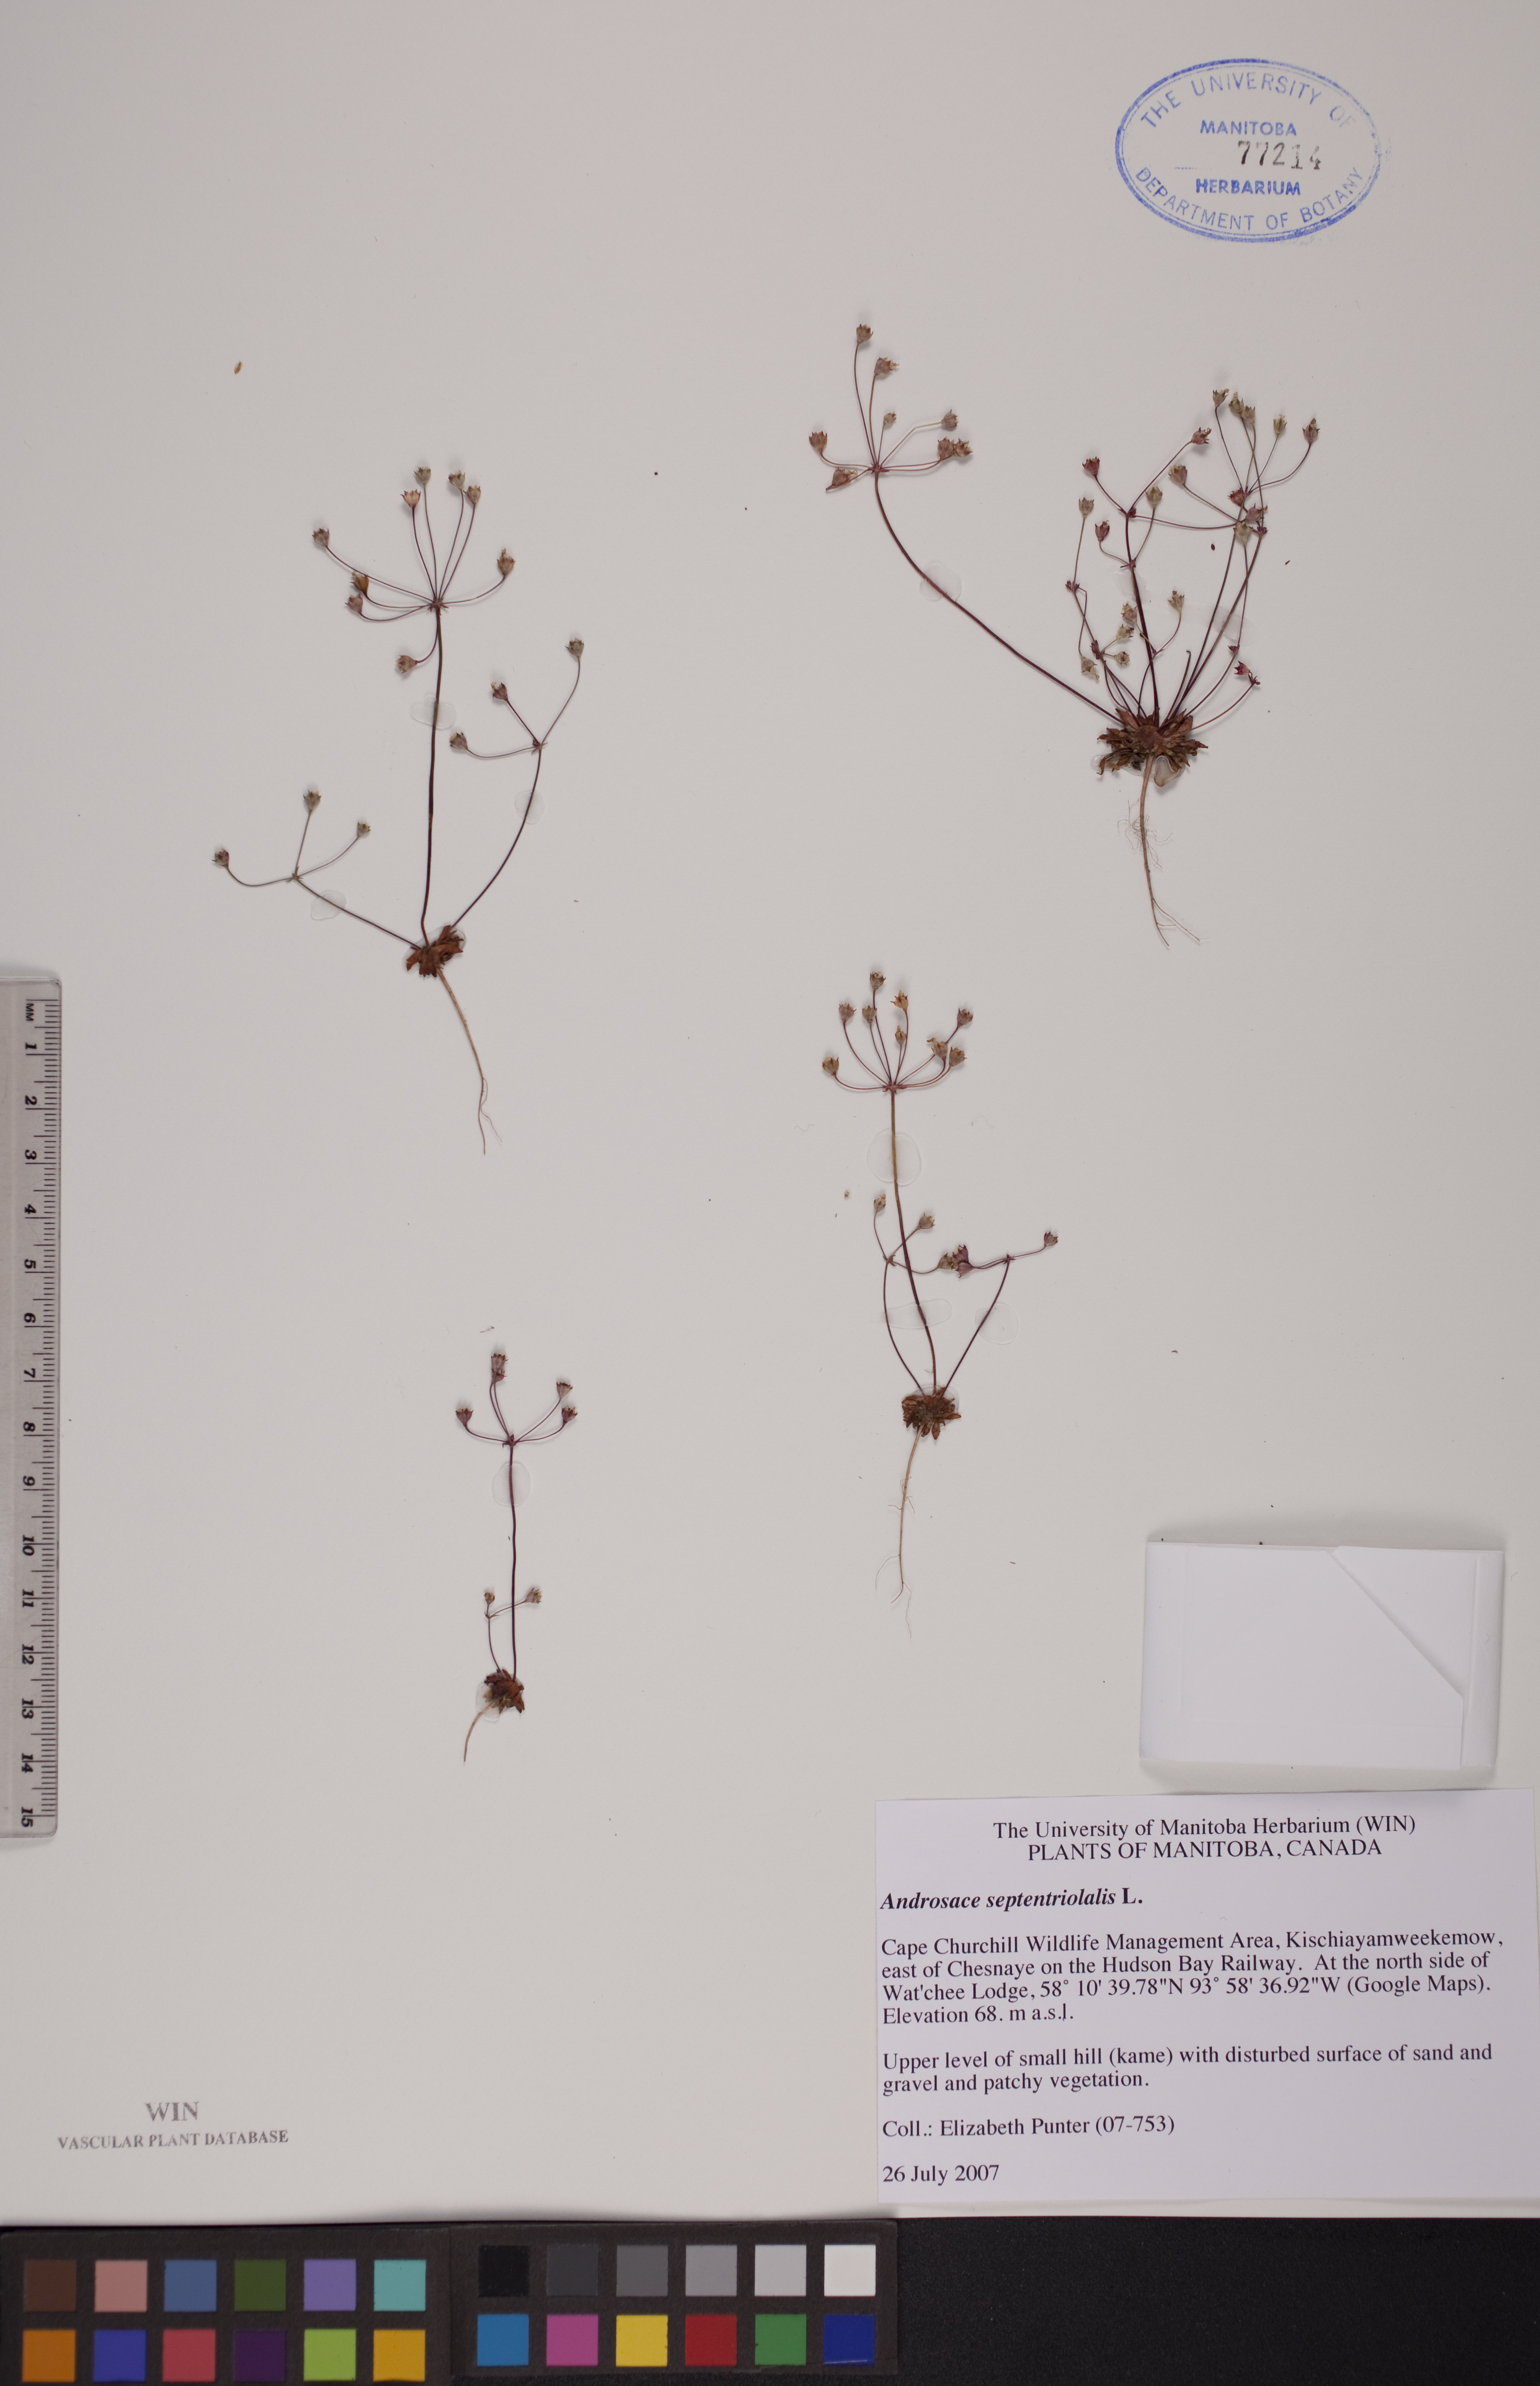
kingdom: Plantae
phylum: Tracheophyta
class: Magnoliopsida
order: Ericales
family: Primulaceae
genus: Androsace
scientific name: Androsace septentrionalis
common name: Hairy northern fairy-candelabra
